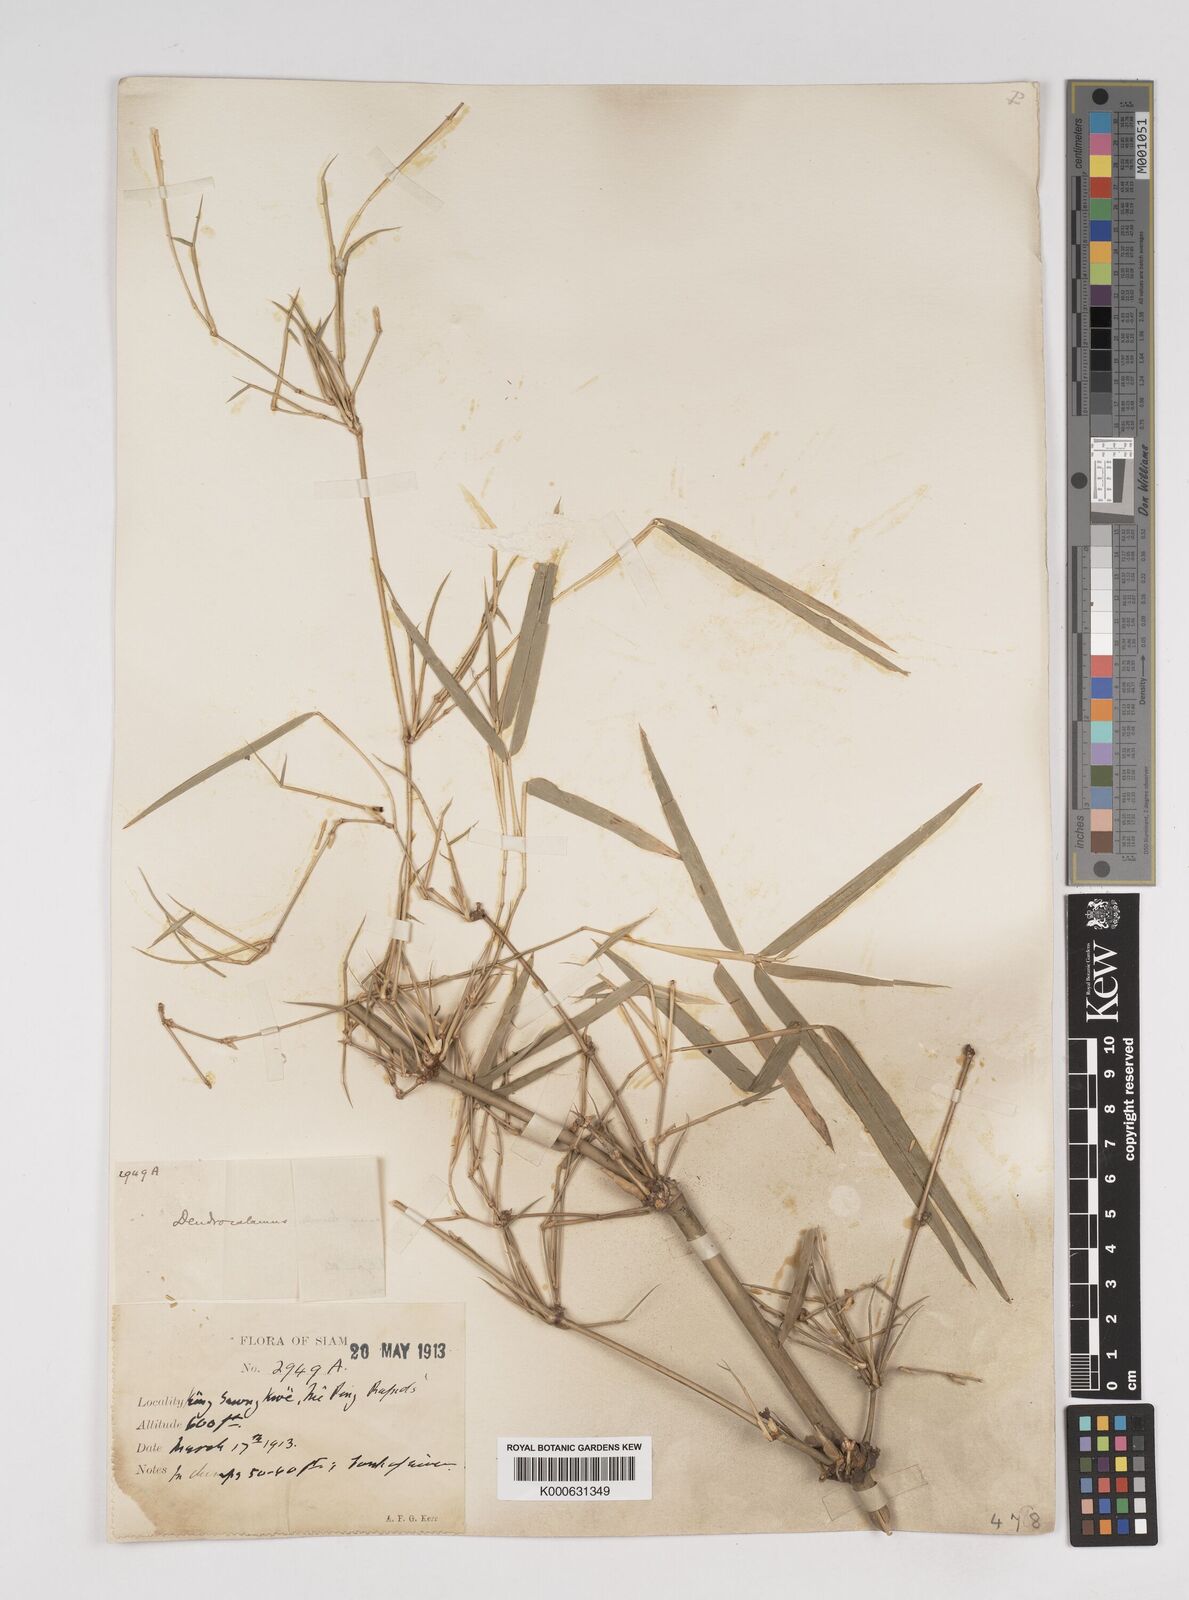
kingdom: Plantae
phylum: Tracheophyta
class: Liliopsida
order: Poales
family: Poaceae
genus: Dendrocalamus
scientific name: Dendrocalamus membranaceus
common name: White bamboo
